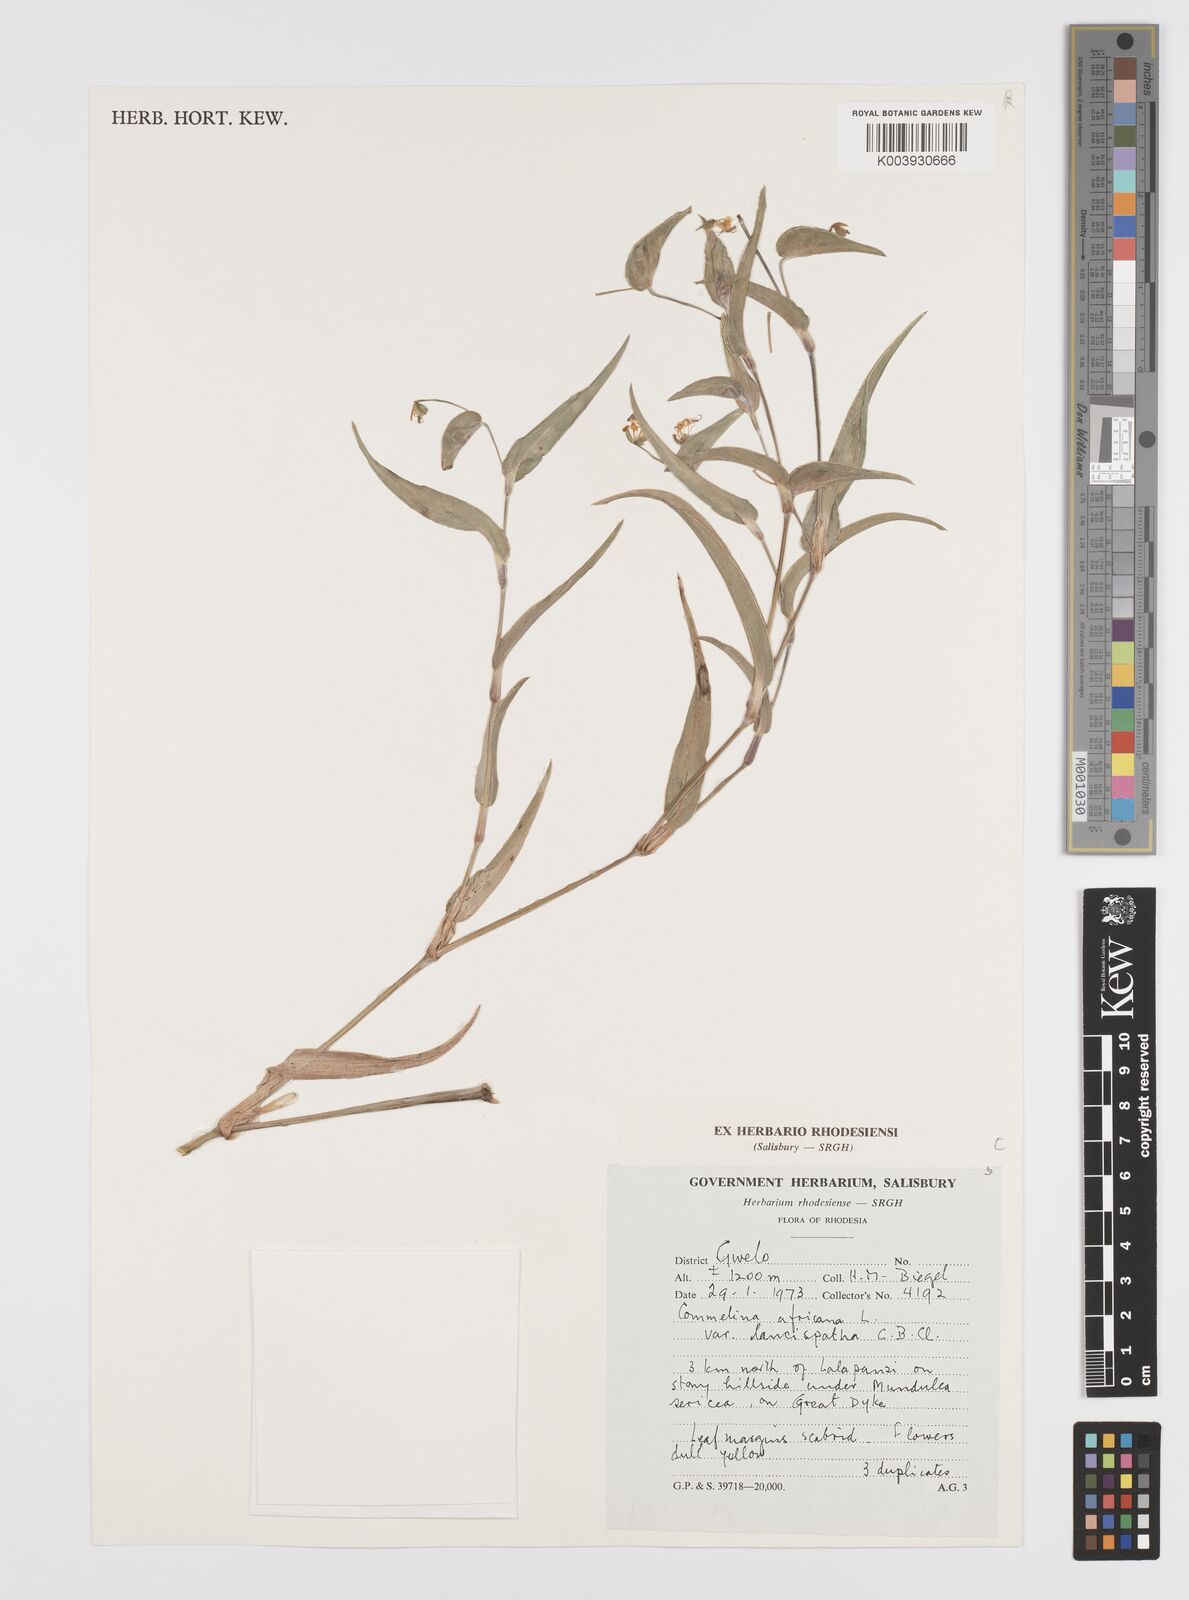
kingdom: Plantae
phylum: Tracheophyta
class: Liliopsida
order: Commelinales
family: Commelinaceae
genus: Commelina
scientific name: Commelina africana
